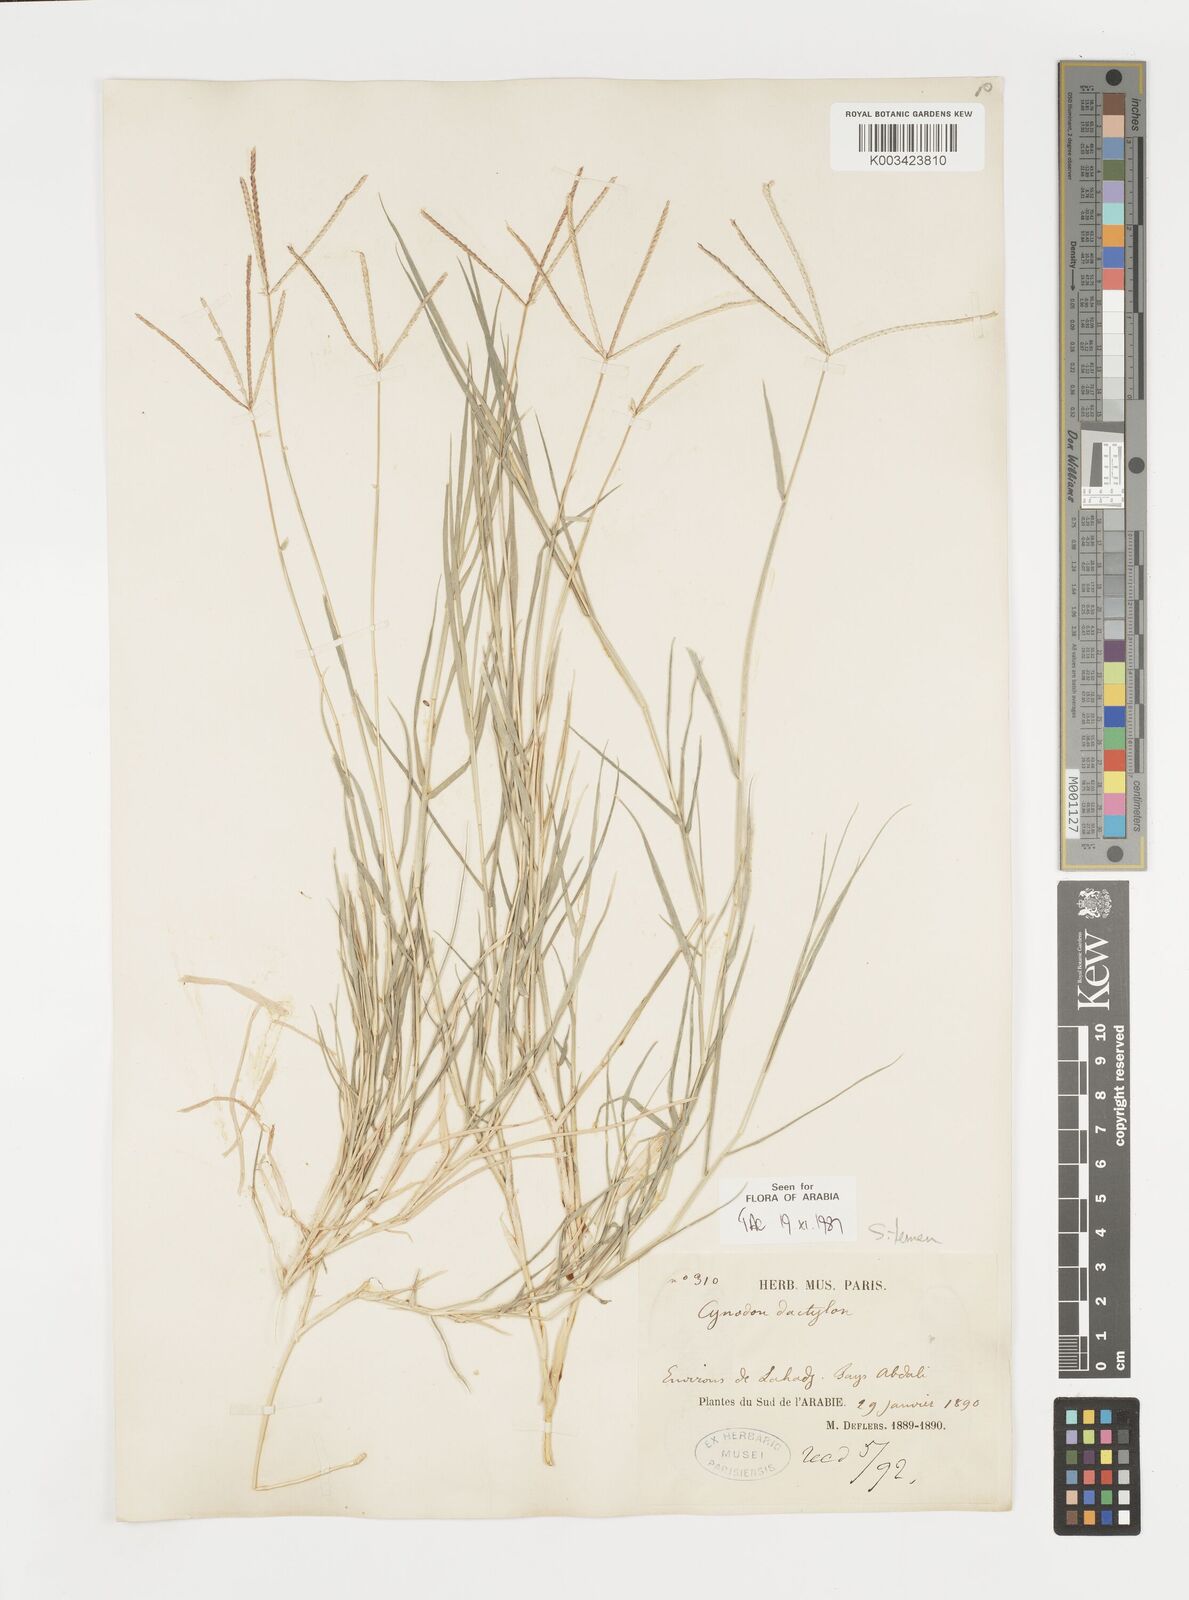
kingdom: Plantae
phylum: Tracheophyta
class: Liliopsida
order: Poales
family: Poaceae
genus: Cynodon
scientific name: Cynodon dactylon
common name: Bermuda grass
